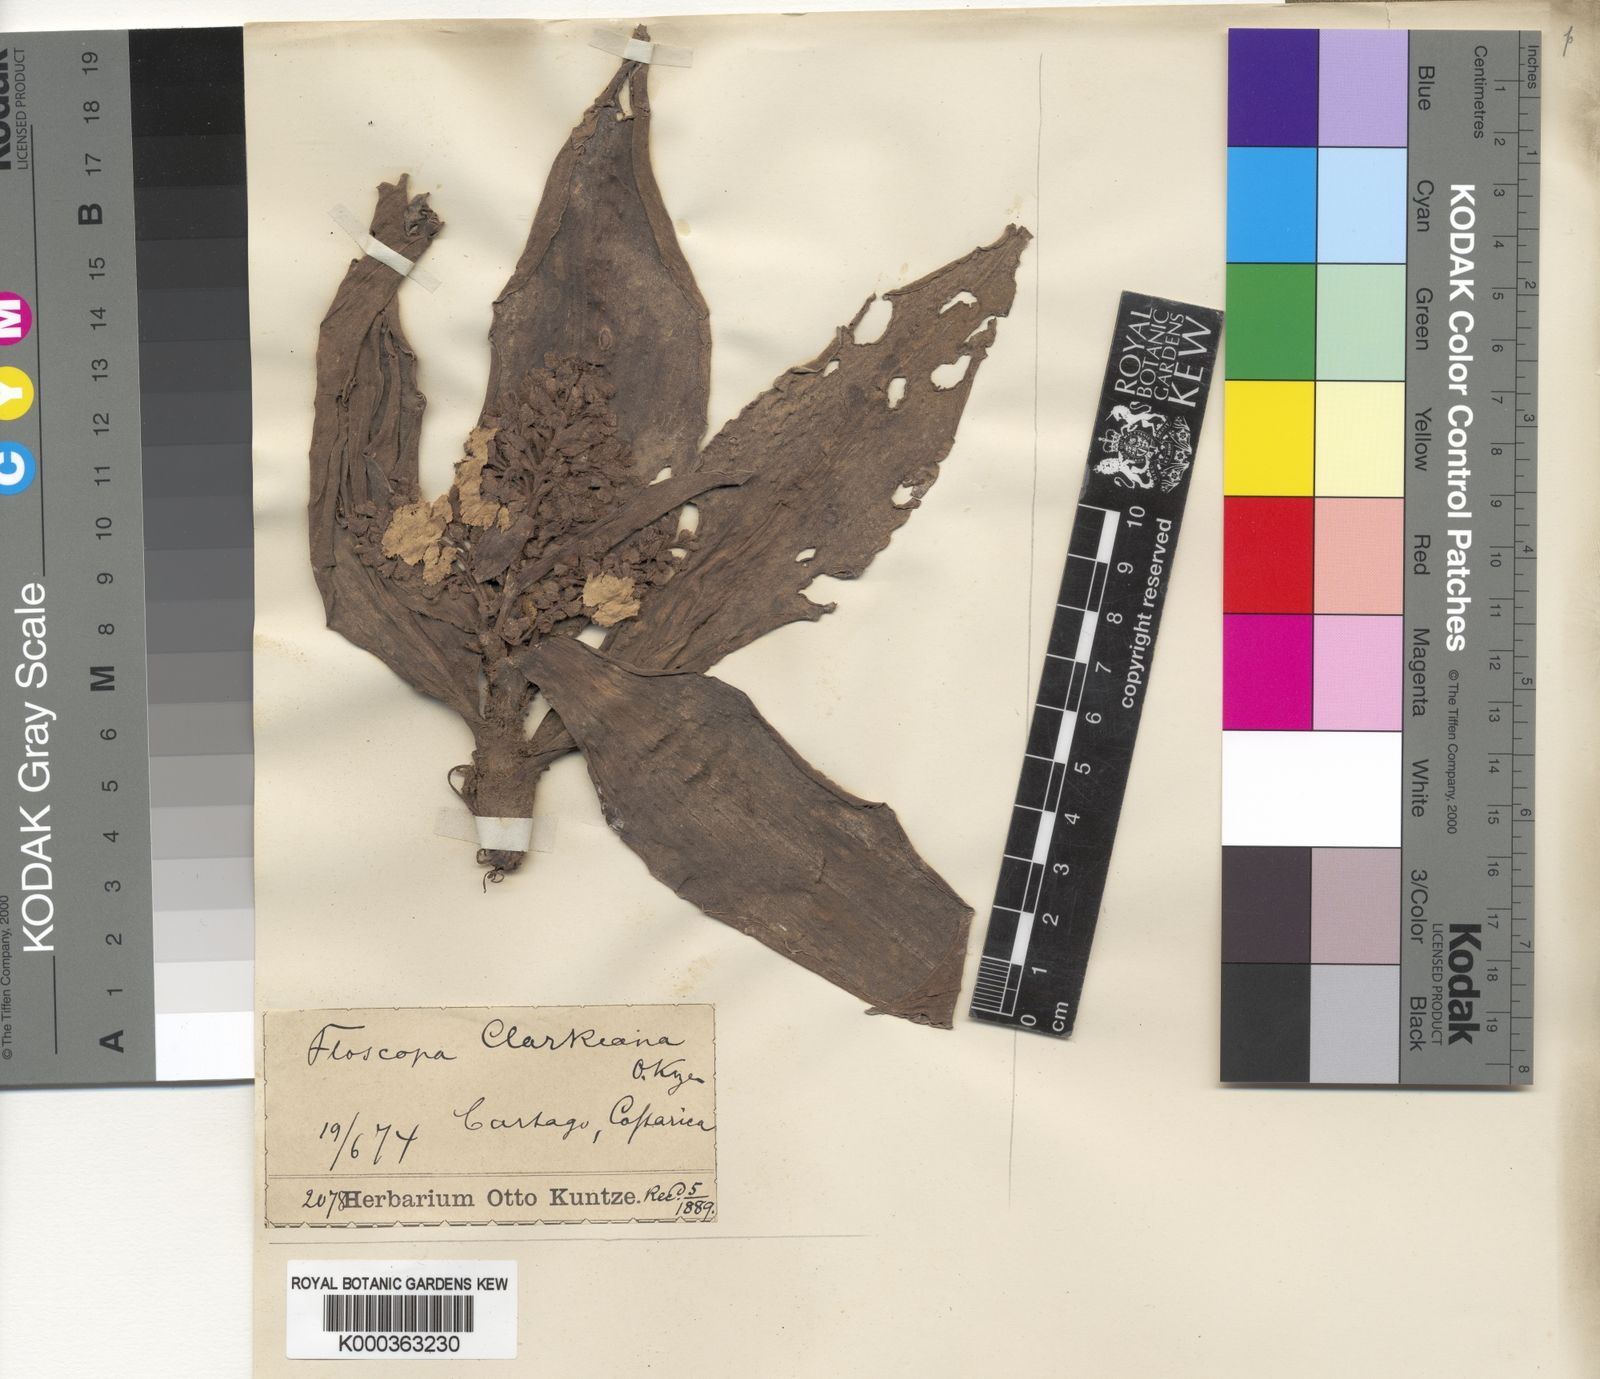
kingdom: Plantae
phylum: Tracheophyta
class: Liliopsida
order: Commelinales
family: Commelinaceae
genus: Floscopa
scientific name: Floscopa robusta
